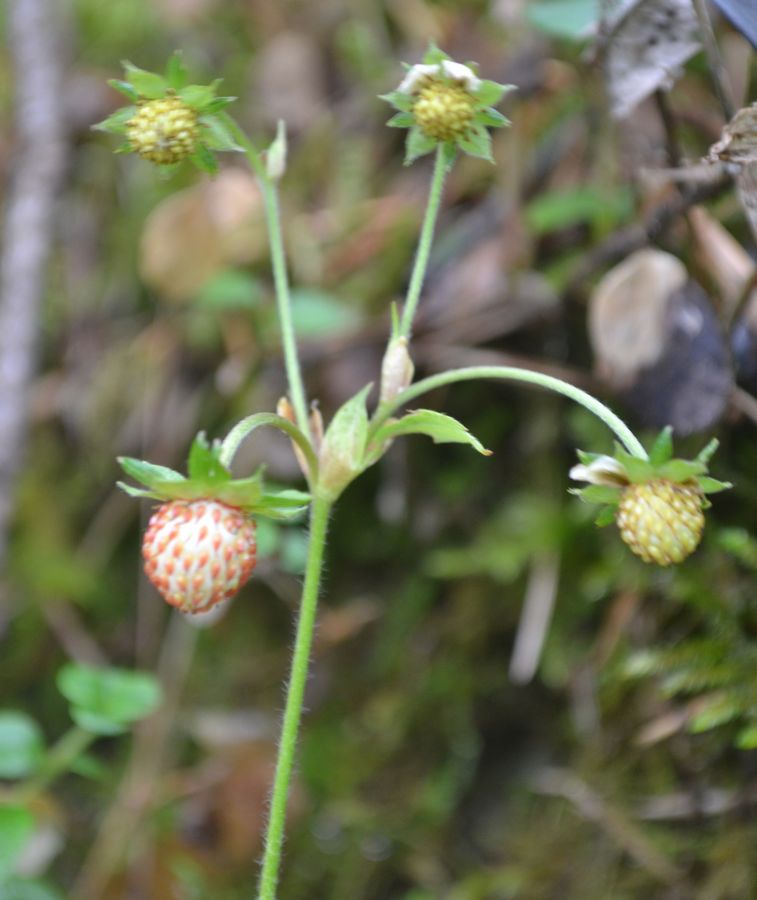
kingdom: Plantae
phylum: Tracheophyta
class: Magnoliopsida
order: Rosales
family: Rosaceae
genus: Fragaria
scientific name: Fragaria vesca
